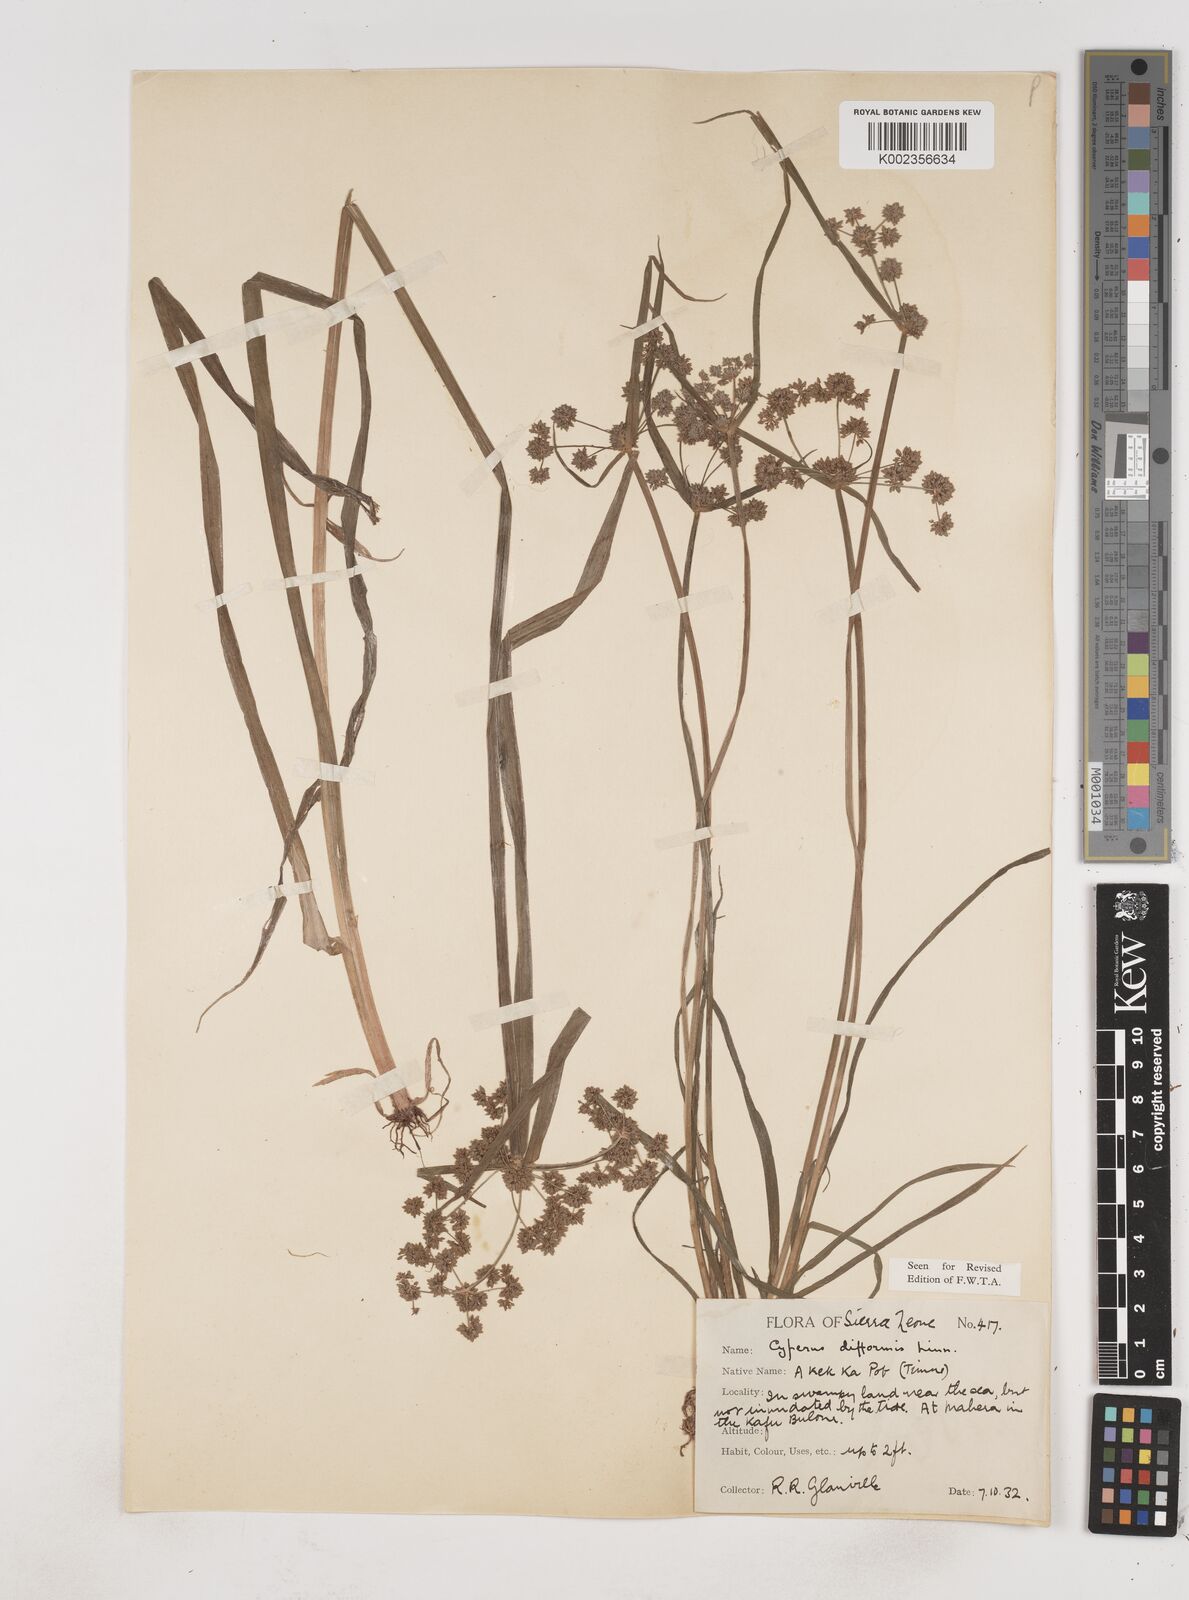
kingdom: Plantae
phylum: Tracheophyta
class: Liliopsida
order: Poales
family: Cyperaceae
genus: Cyperus
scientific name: Cyperus difformis
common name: Variable flatsedge
